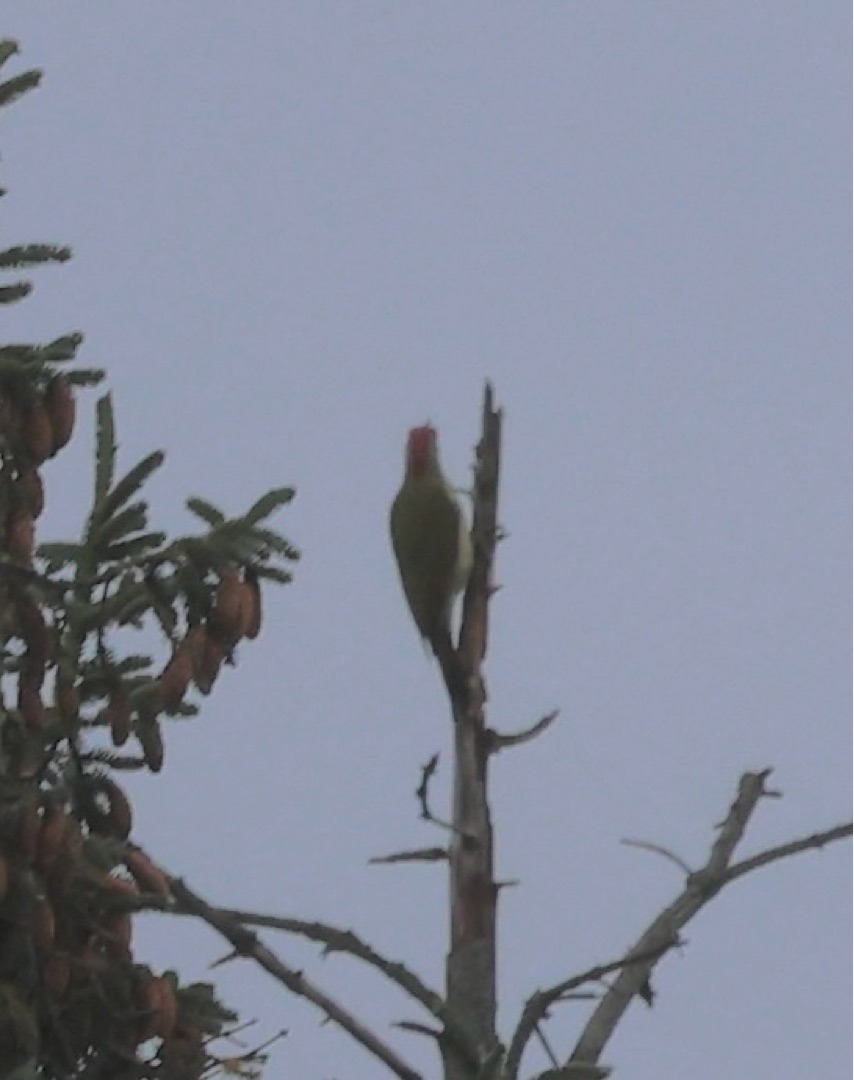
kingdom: Animalia
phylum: Chordata
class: Aves
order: Piciformes
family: Picidae
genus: Picus
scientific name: Picus viridis
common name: Grønspætte
